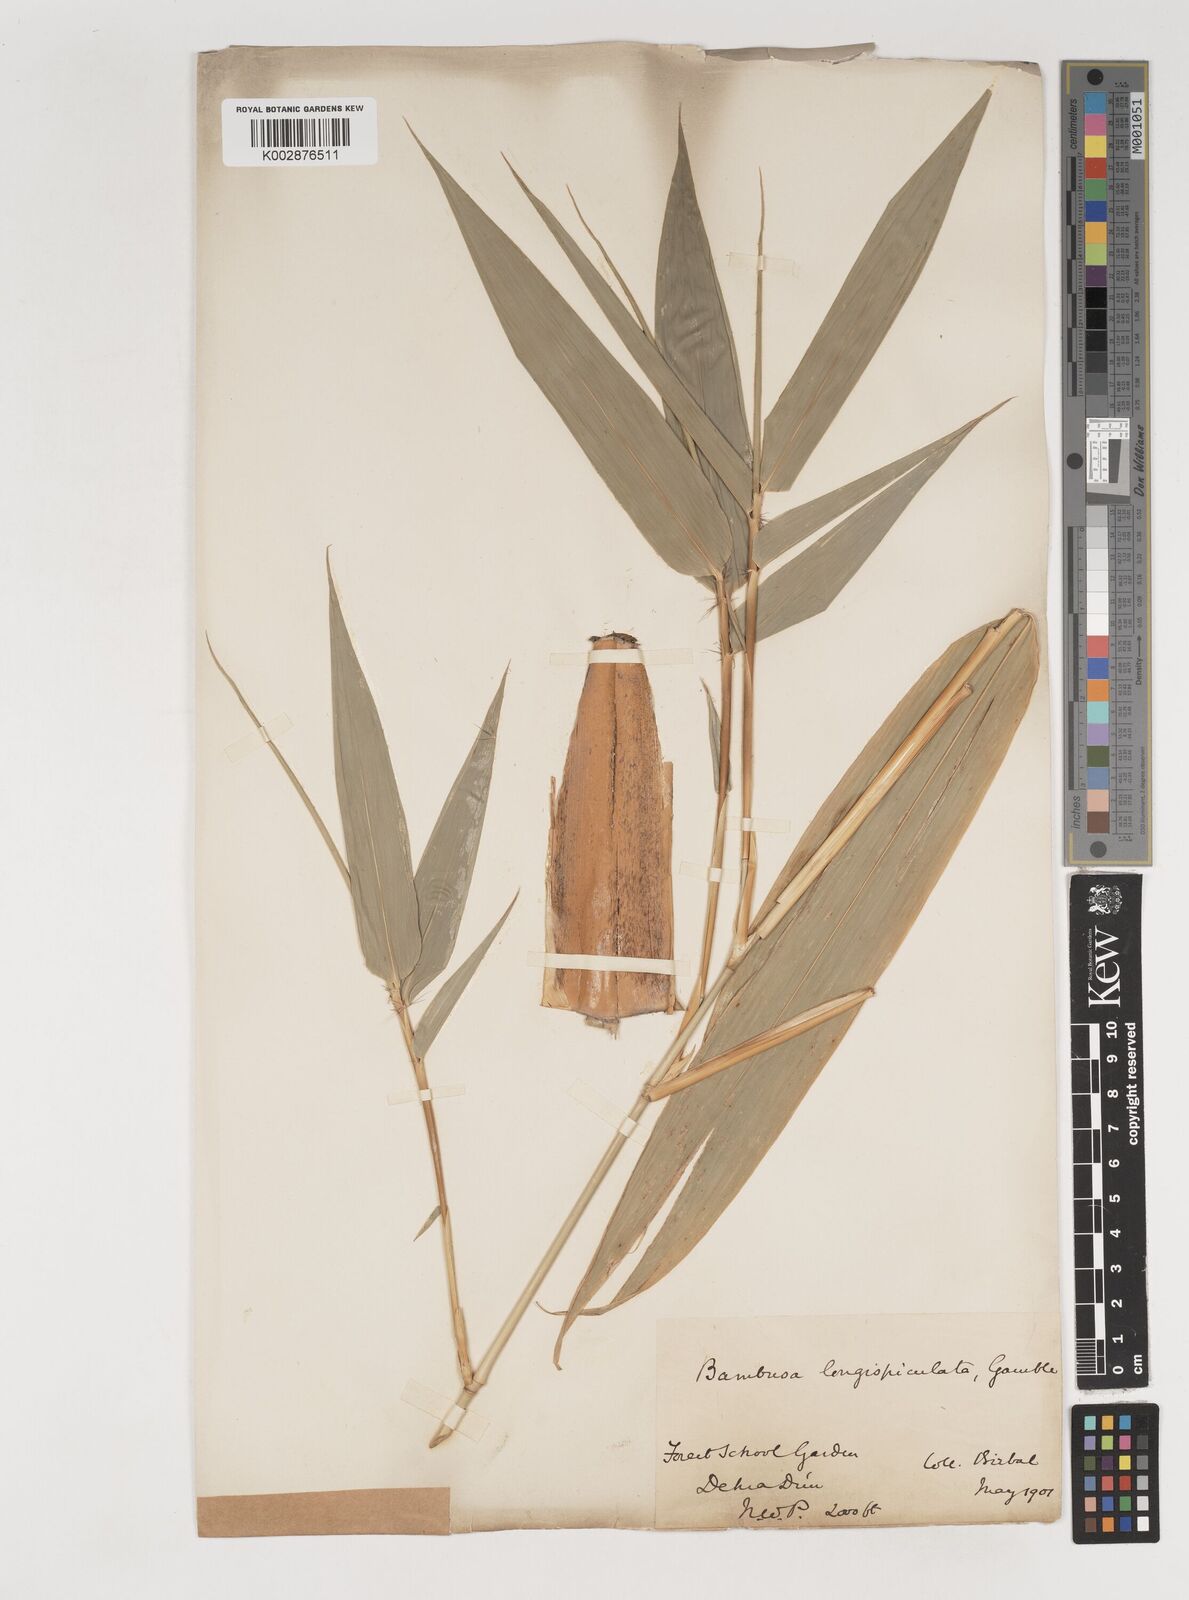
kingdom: Plantae
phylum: Tracheophyta
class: Liliopsida
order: Poales
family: Poaceae
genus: Bambusa
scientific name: Bambusa longispiculata
